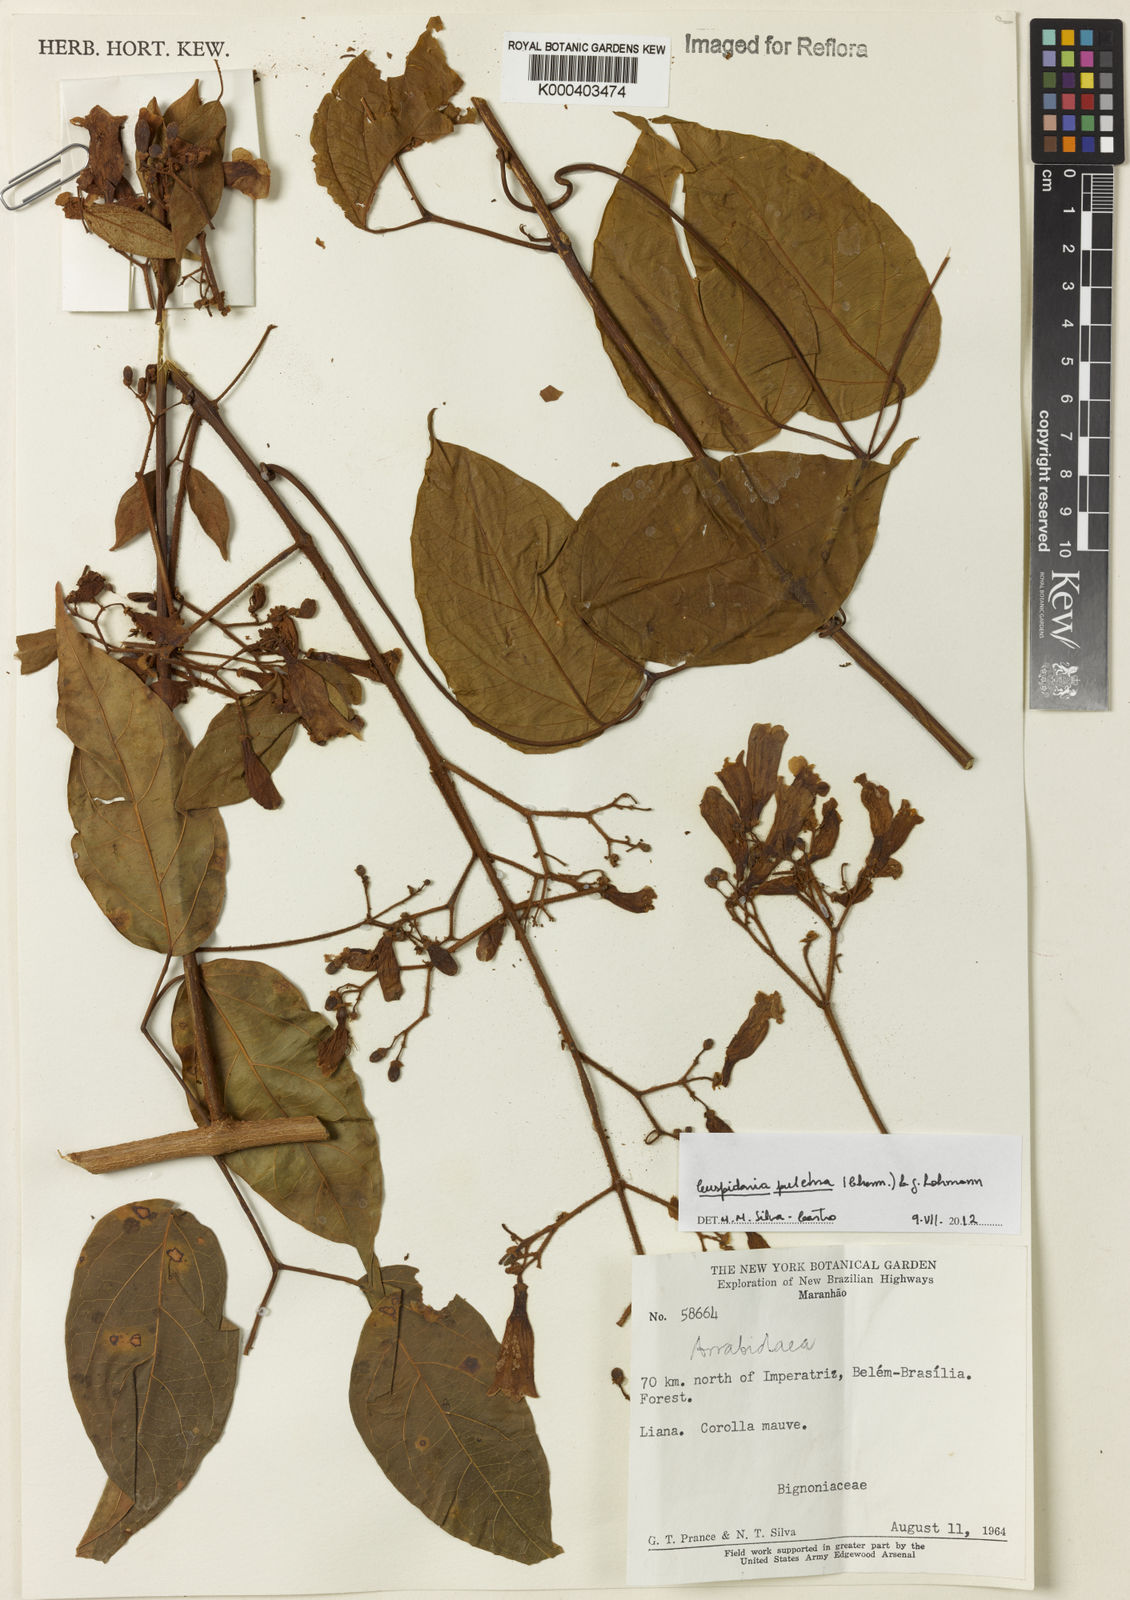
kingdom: Plantae
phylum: Tracheophyta
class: Magnoliopsida
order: Lamiales
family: Bignoniaceae
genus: Cuspidaria
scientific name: Cuspidaria pulchra
